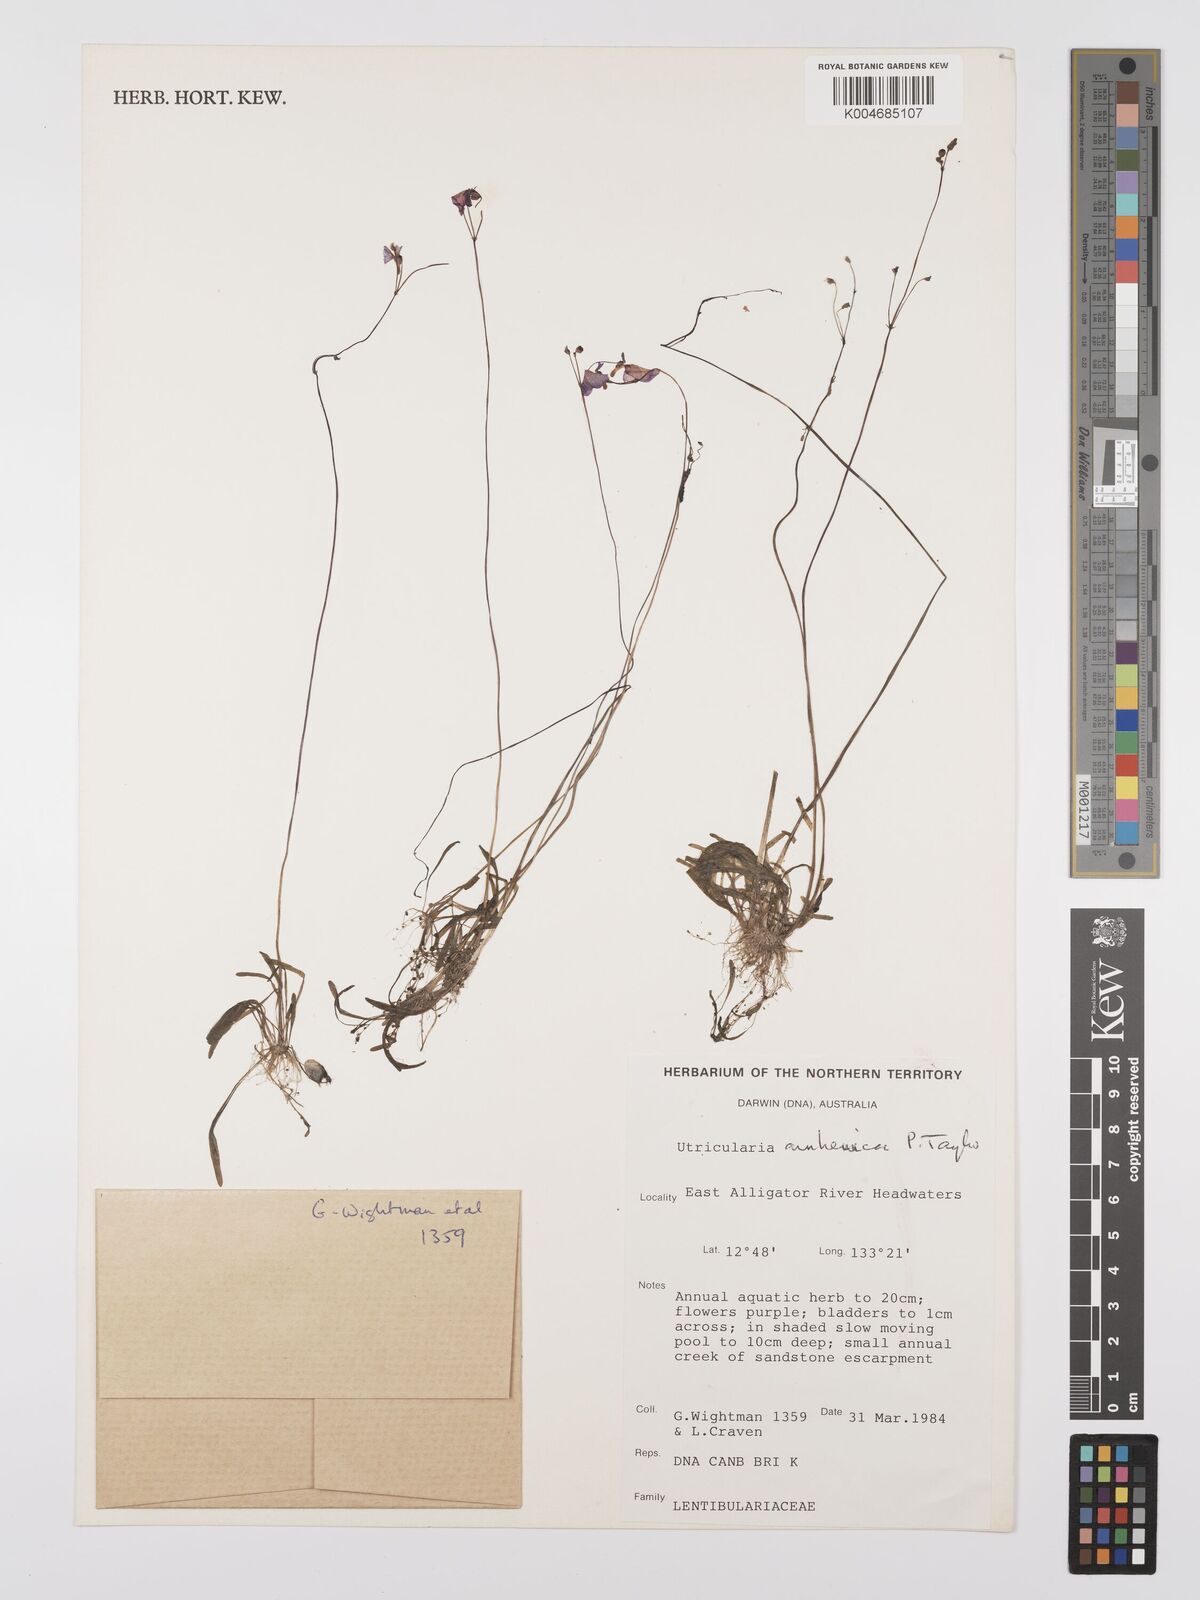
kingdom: Plantae
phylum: Tracheophyta
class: Magnoliopsida
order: Lamiales
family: Lentibulariaceae
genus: Utricularia
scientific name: Utricularia arnhemica
